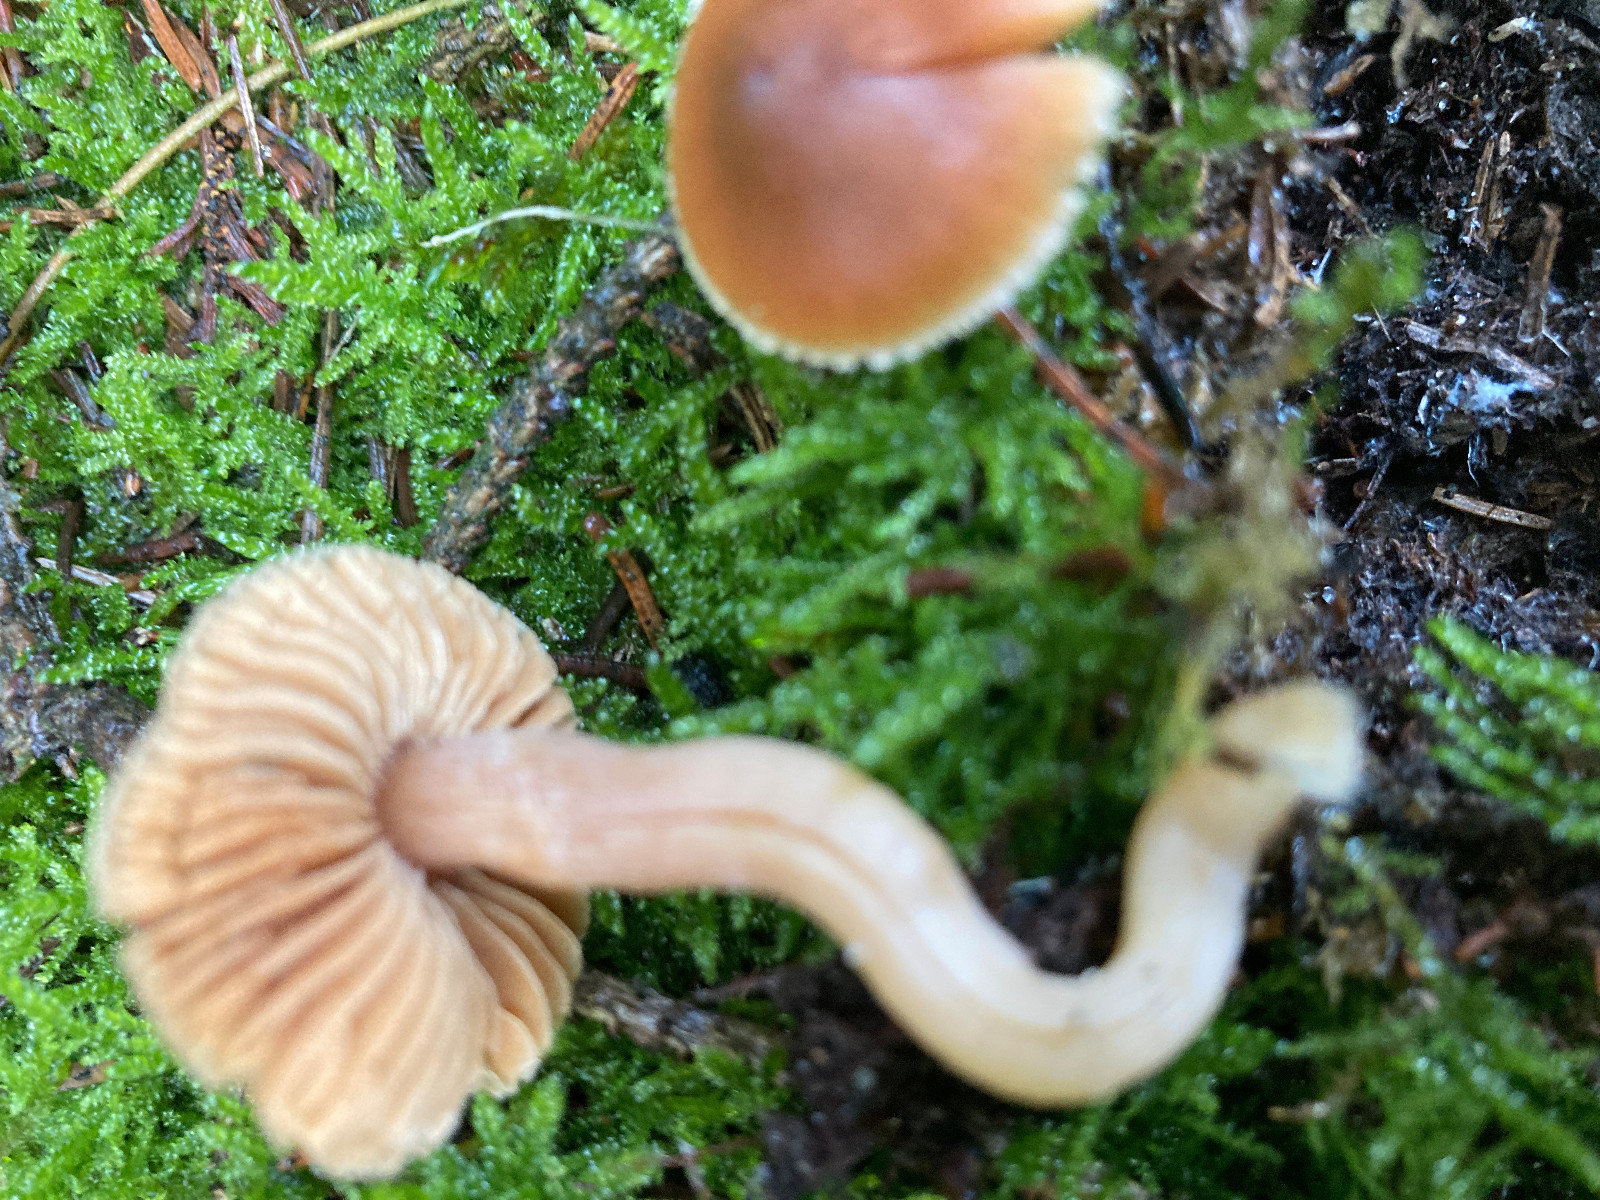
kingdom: Fungi
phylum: Basidiomycota
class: Agaricomycetes
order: Agaricales
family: Cortinariaceae
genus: Cortinarius
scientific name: Cortinarius
